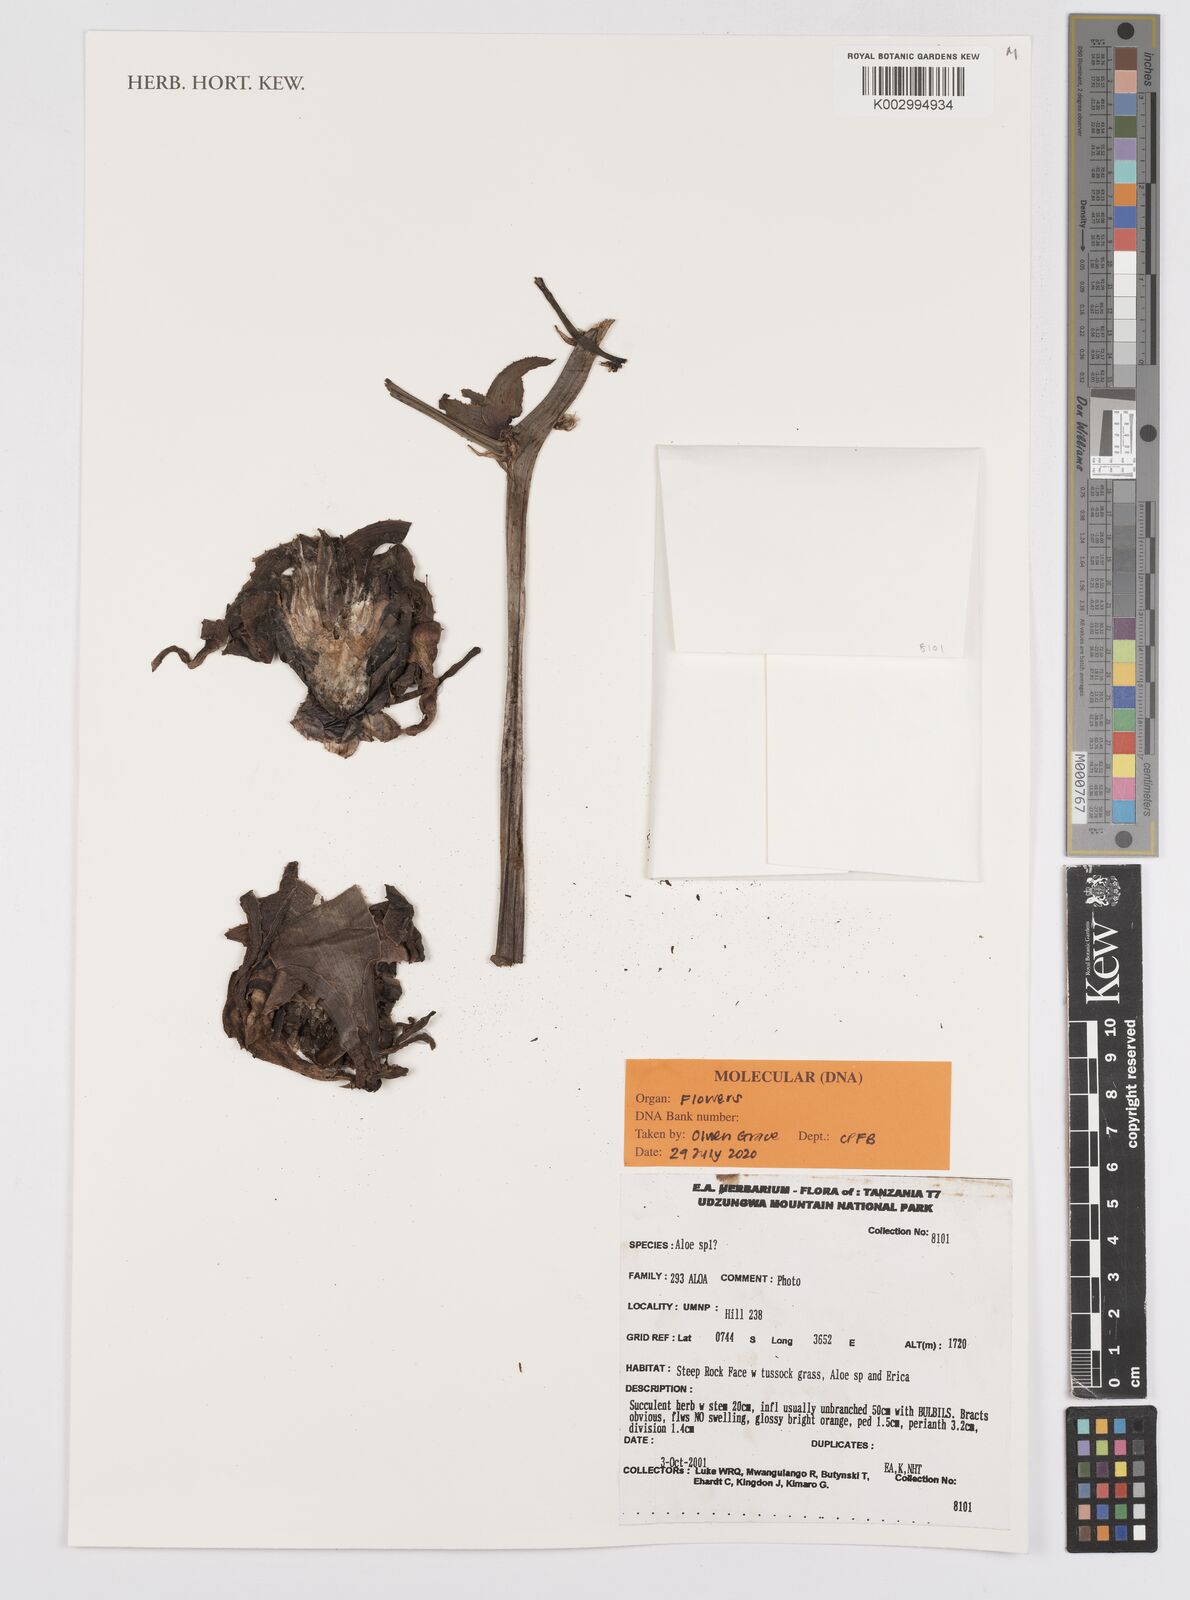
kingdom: Plantae
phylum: Tracheophyta
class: Liliopsida
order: Asparagales
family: Asphodelaceae
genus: Aloe
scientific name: Aloe
